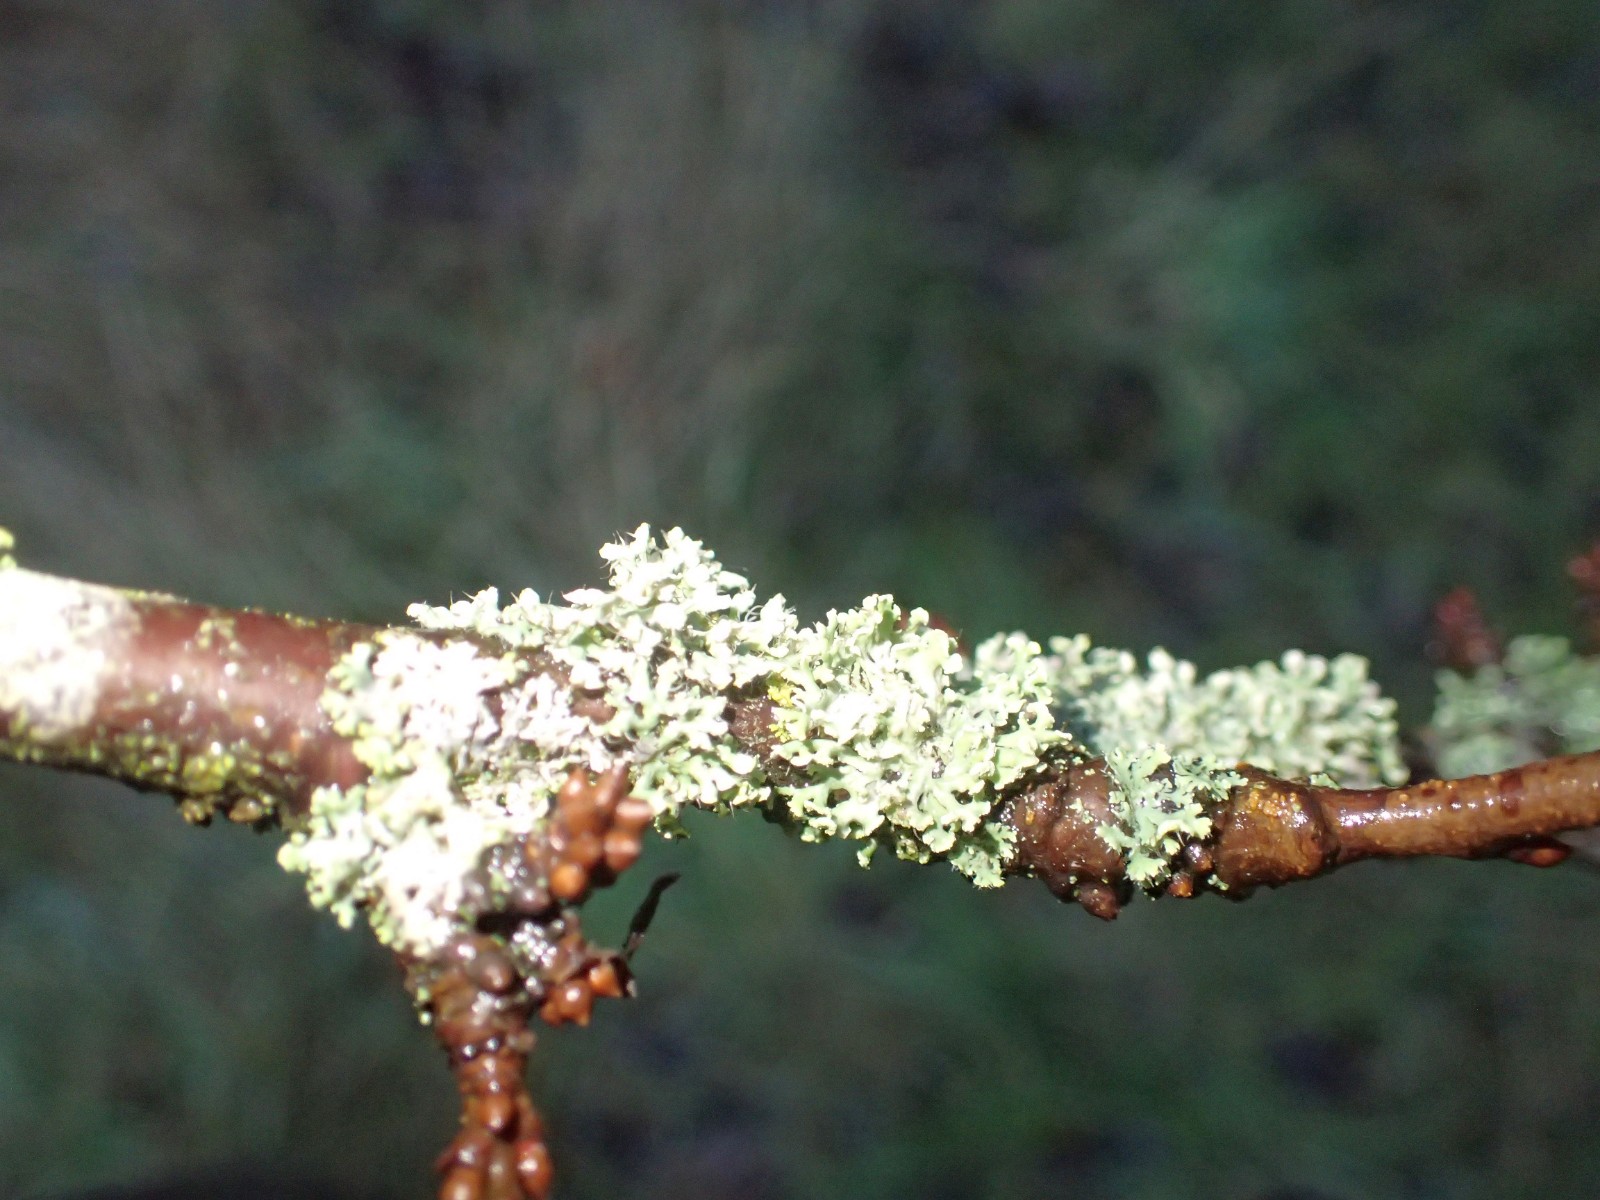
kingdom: Fungi
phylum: Ascomycota
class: Lecanoromycetes
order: Caliciales
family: Physciaceae
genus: Physcia
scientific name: Physcia adscendens
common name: hætte-rosetlav
